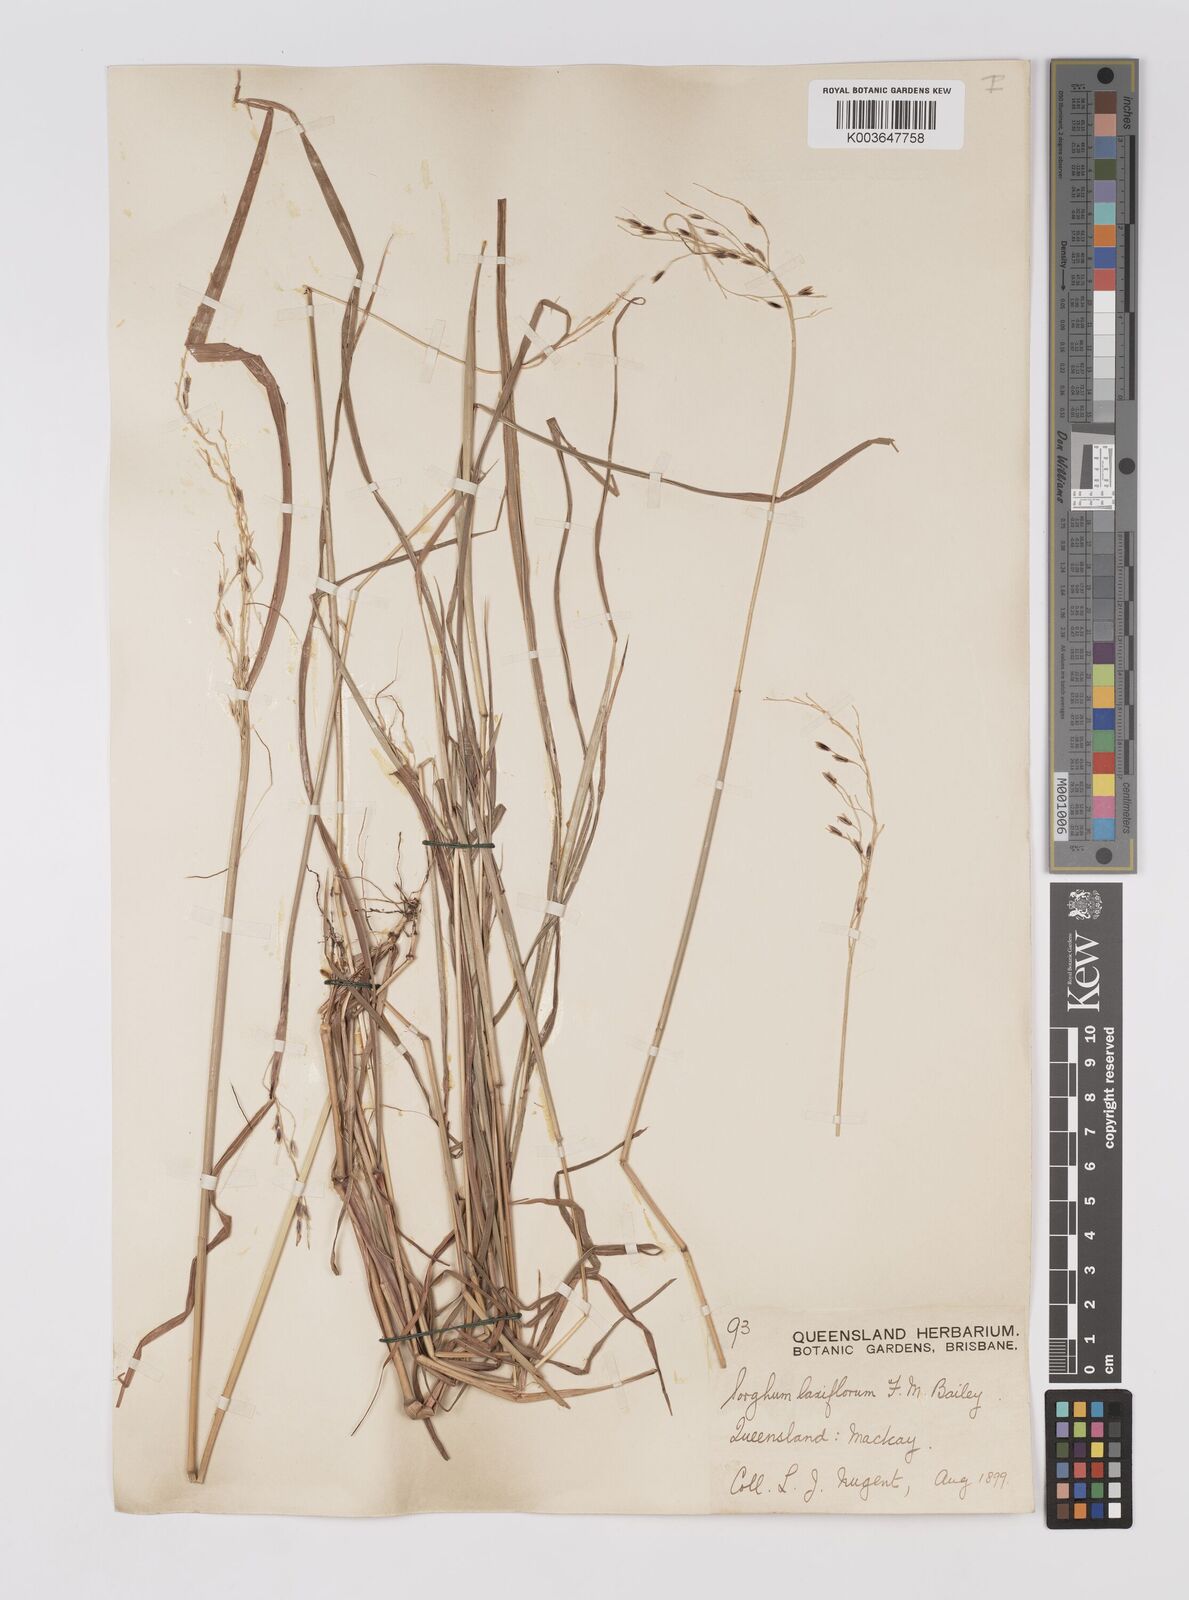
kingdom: Plantae
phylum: Tracheophyta
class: Liliopsida
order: Poales
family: Poaceae
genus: Sorghum
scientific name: Sorghum laxiflorum
